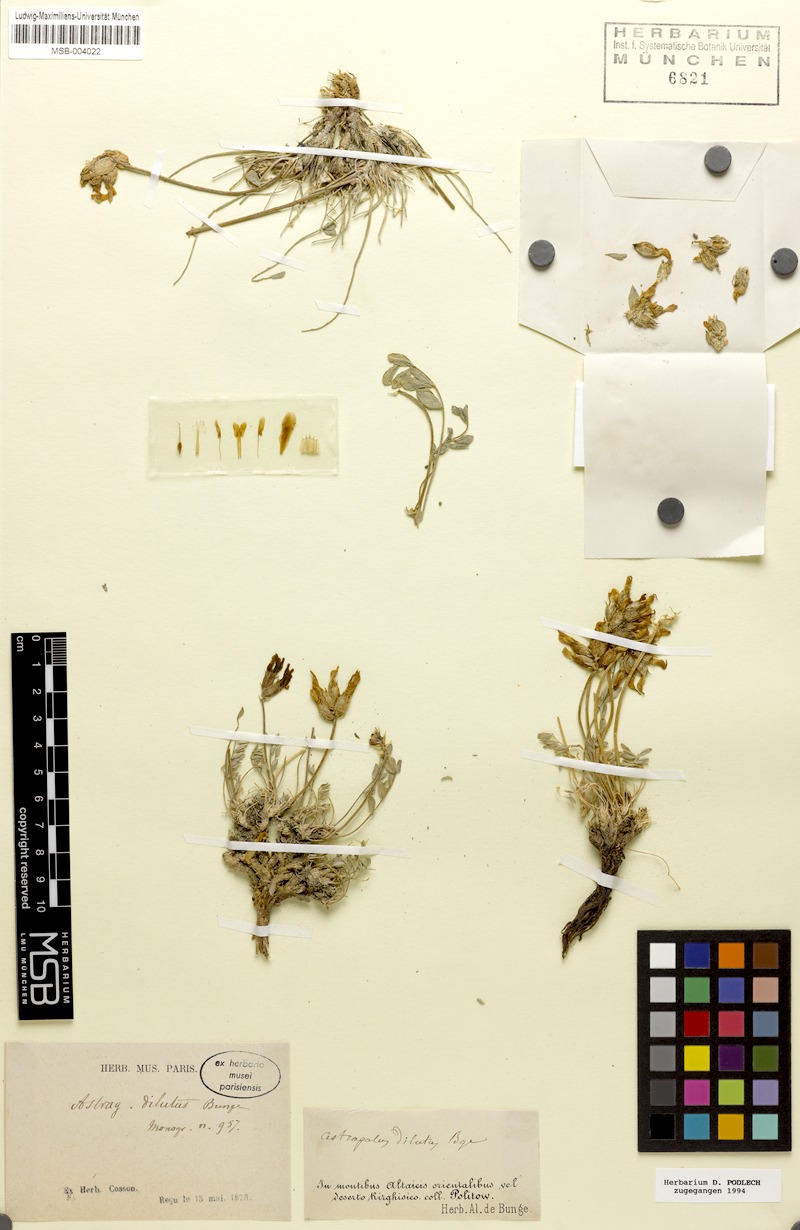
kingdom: Plantae
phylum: Tracheophyta
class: Magnoliopsida
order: Fabales
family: Fabaceae
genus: Astragalus
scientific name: Astragalus dilutus
